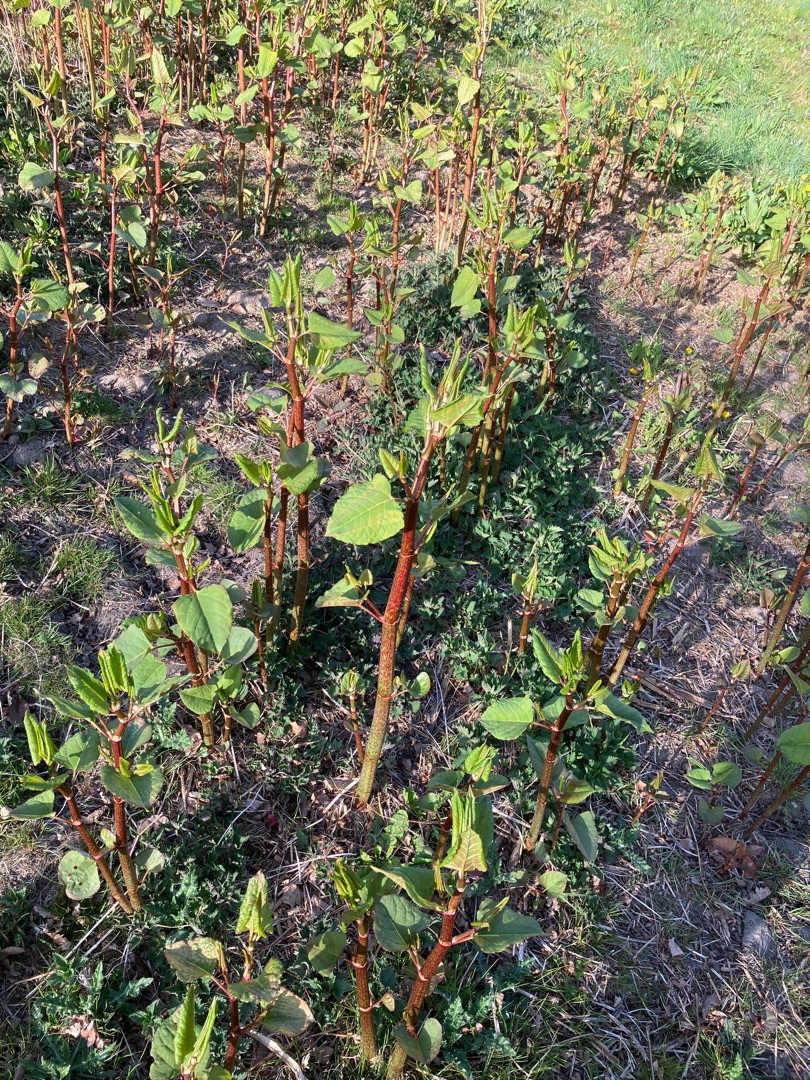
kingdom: Plantae
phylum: Tracheophyta
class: Magnoliopsida
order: Caryophyllales
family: Polygonaceae
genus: Reynoutria
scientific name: Reynoutria bohemica
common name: Hybrid-pileurt
